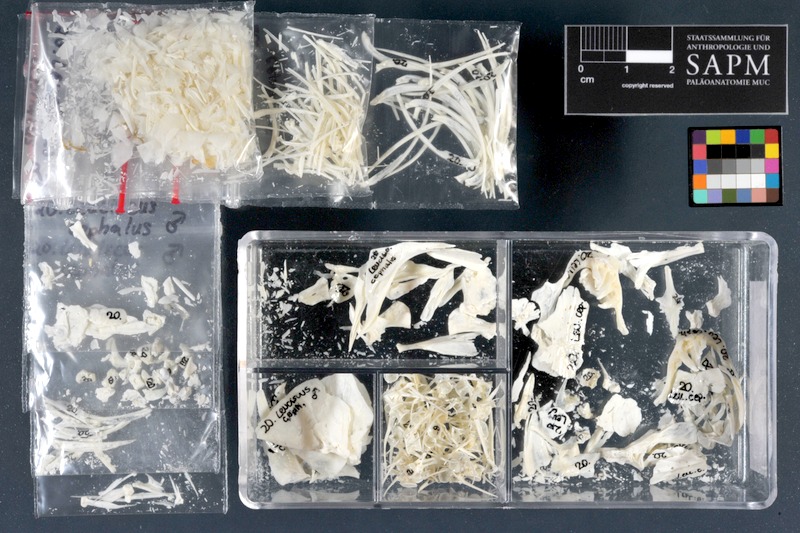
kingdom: Animalia
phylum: Chordata
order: Cypriniformes
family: Cyprinidae
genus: Squalius
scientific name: Squalius cephalus
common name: Chub
